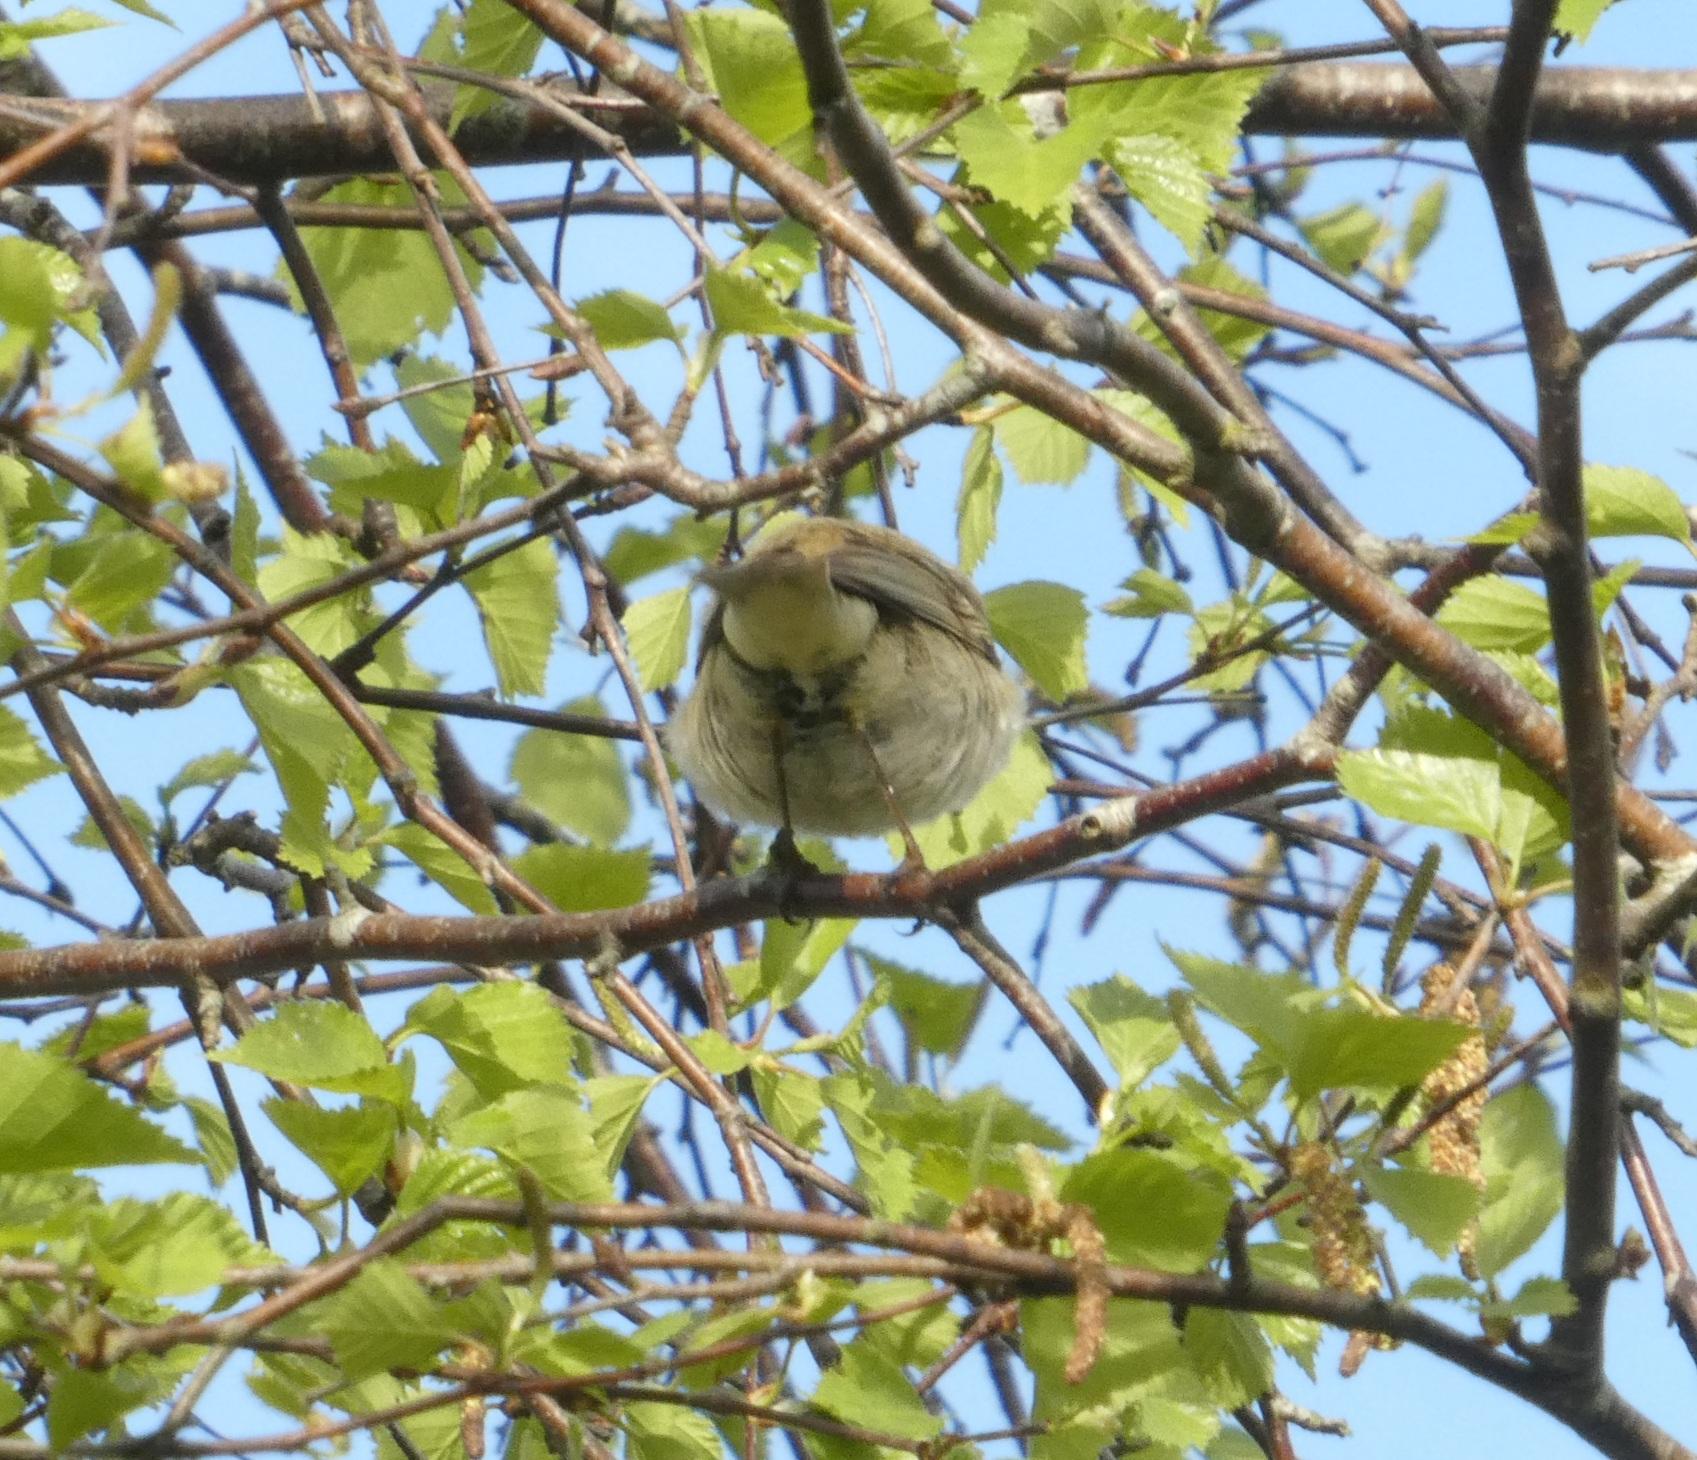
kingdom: Animalia
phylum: Chordata
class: Aves
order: Passeriformes
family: Phylloscopidae
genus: Phylloscopus
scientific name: Phylloscopus trochilus
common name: Løvsanger
